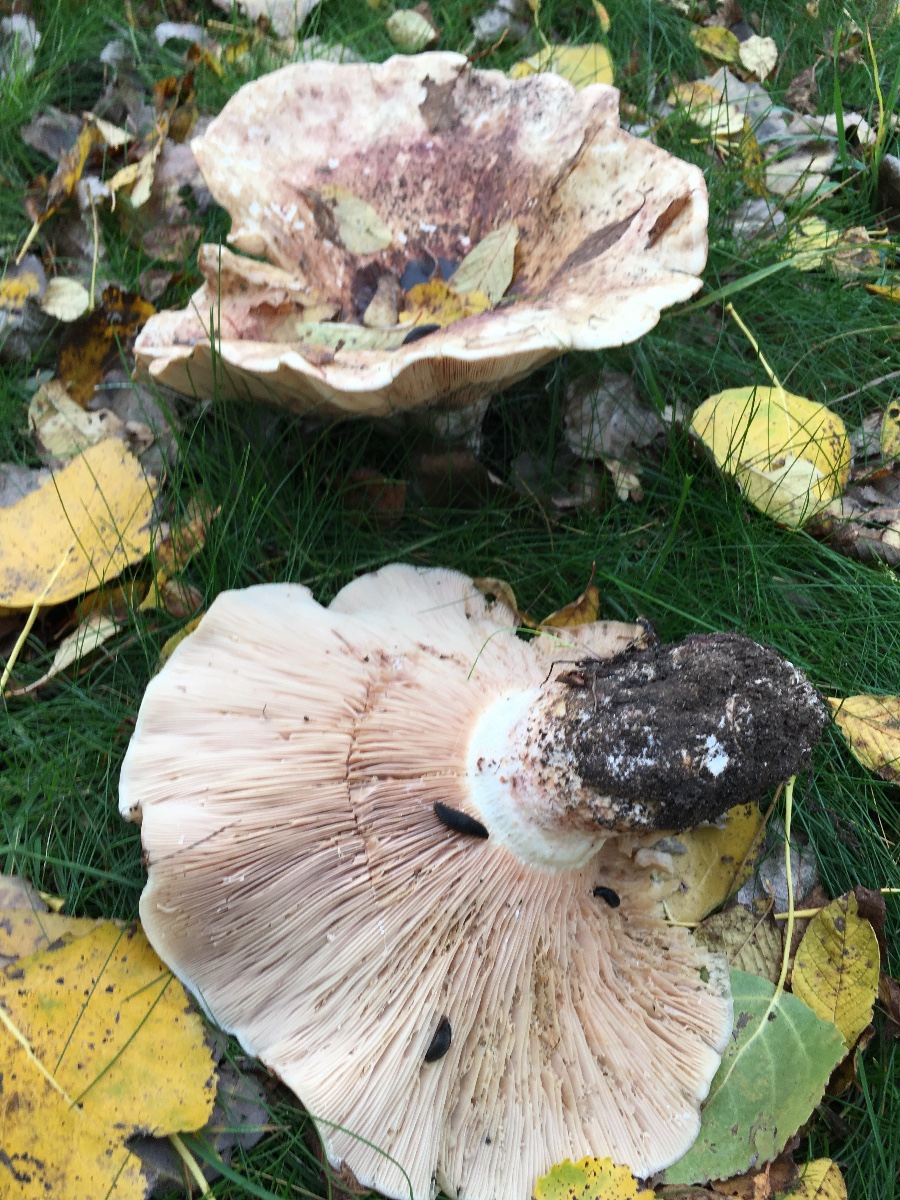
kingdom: Fungi
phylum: Basidiomycota
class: Agaricomycetes
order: Russulales
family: Russulaceae
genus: Lactarius
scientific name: Lactarius controversus
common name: rosabladet mælkehat
